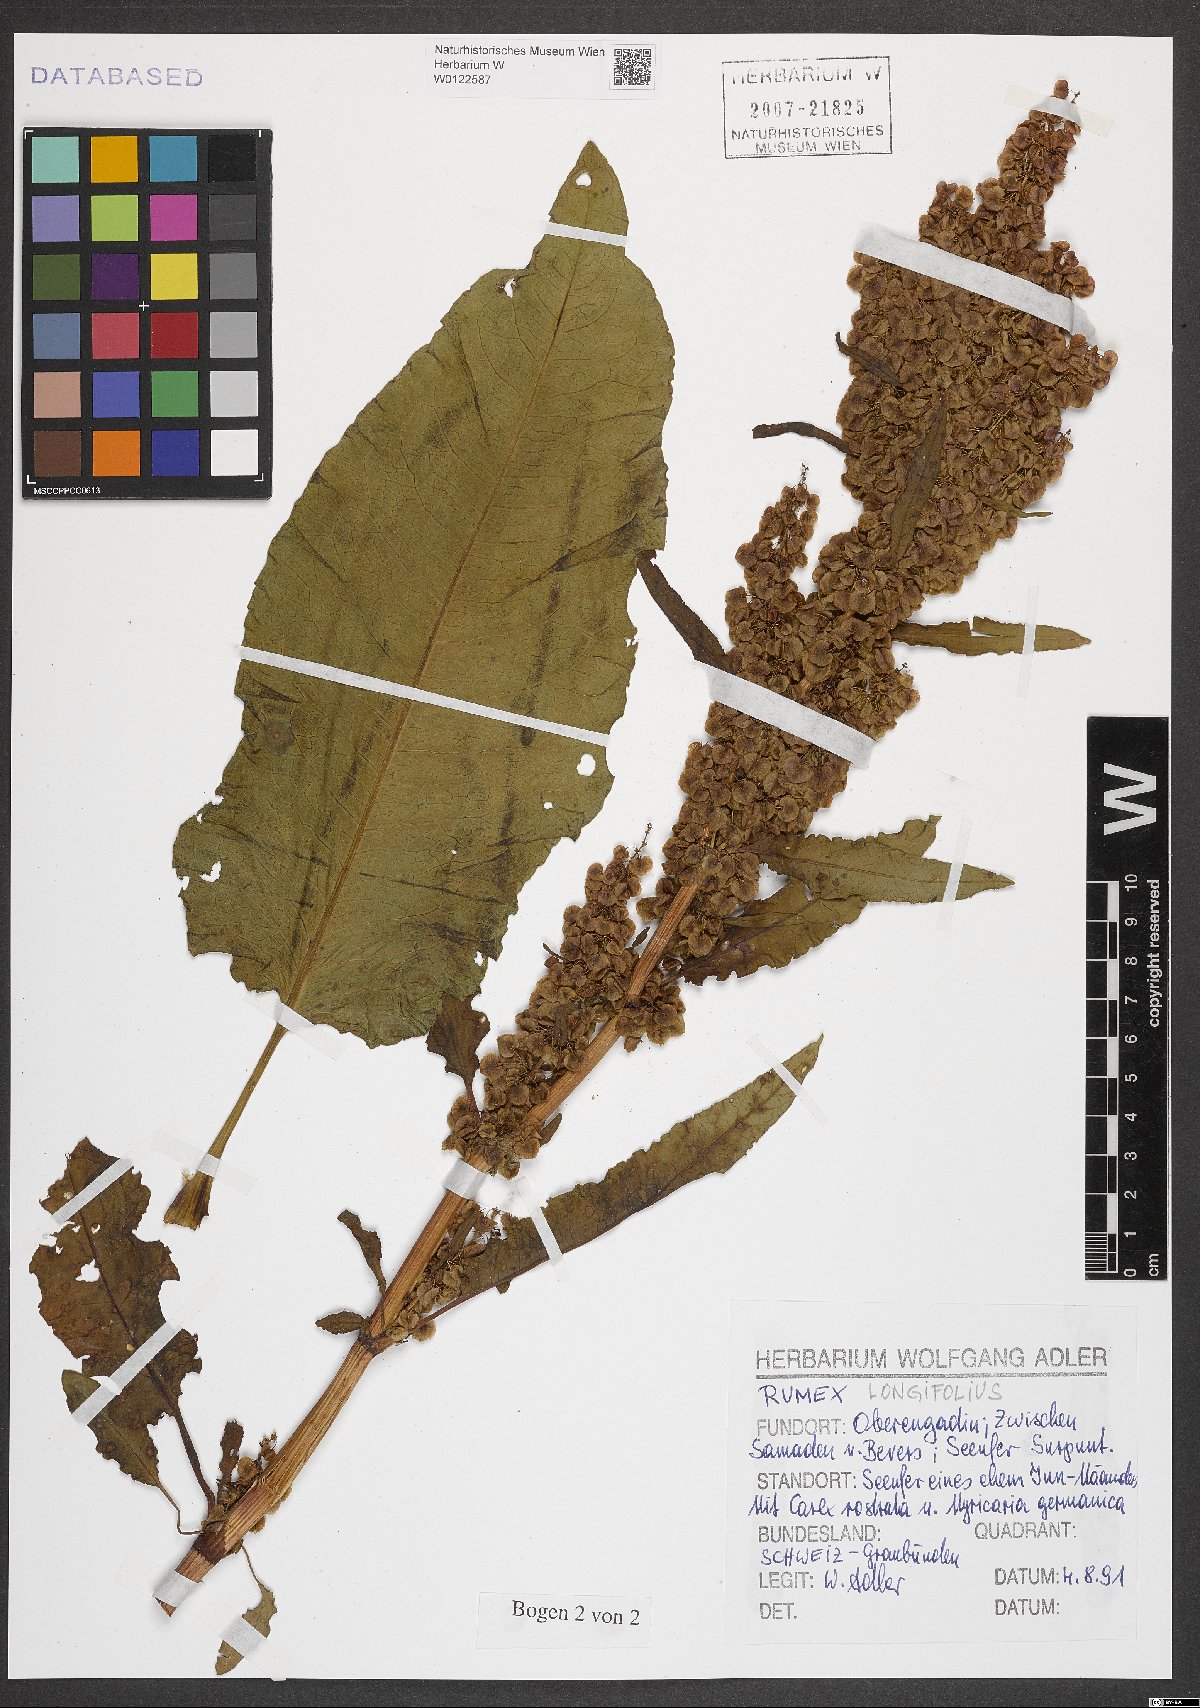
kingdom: Plantae
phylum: Tracheophyta
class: Magnoliopsida
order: Caryophyllales
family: Polygonaceae
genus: Rumex
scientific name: Rumex longifolius
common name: Dooryard dock
